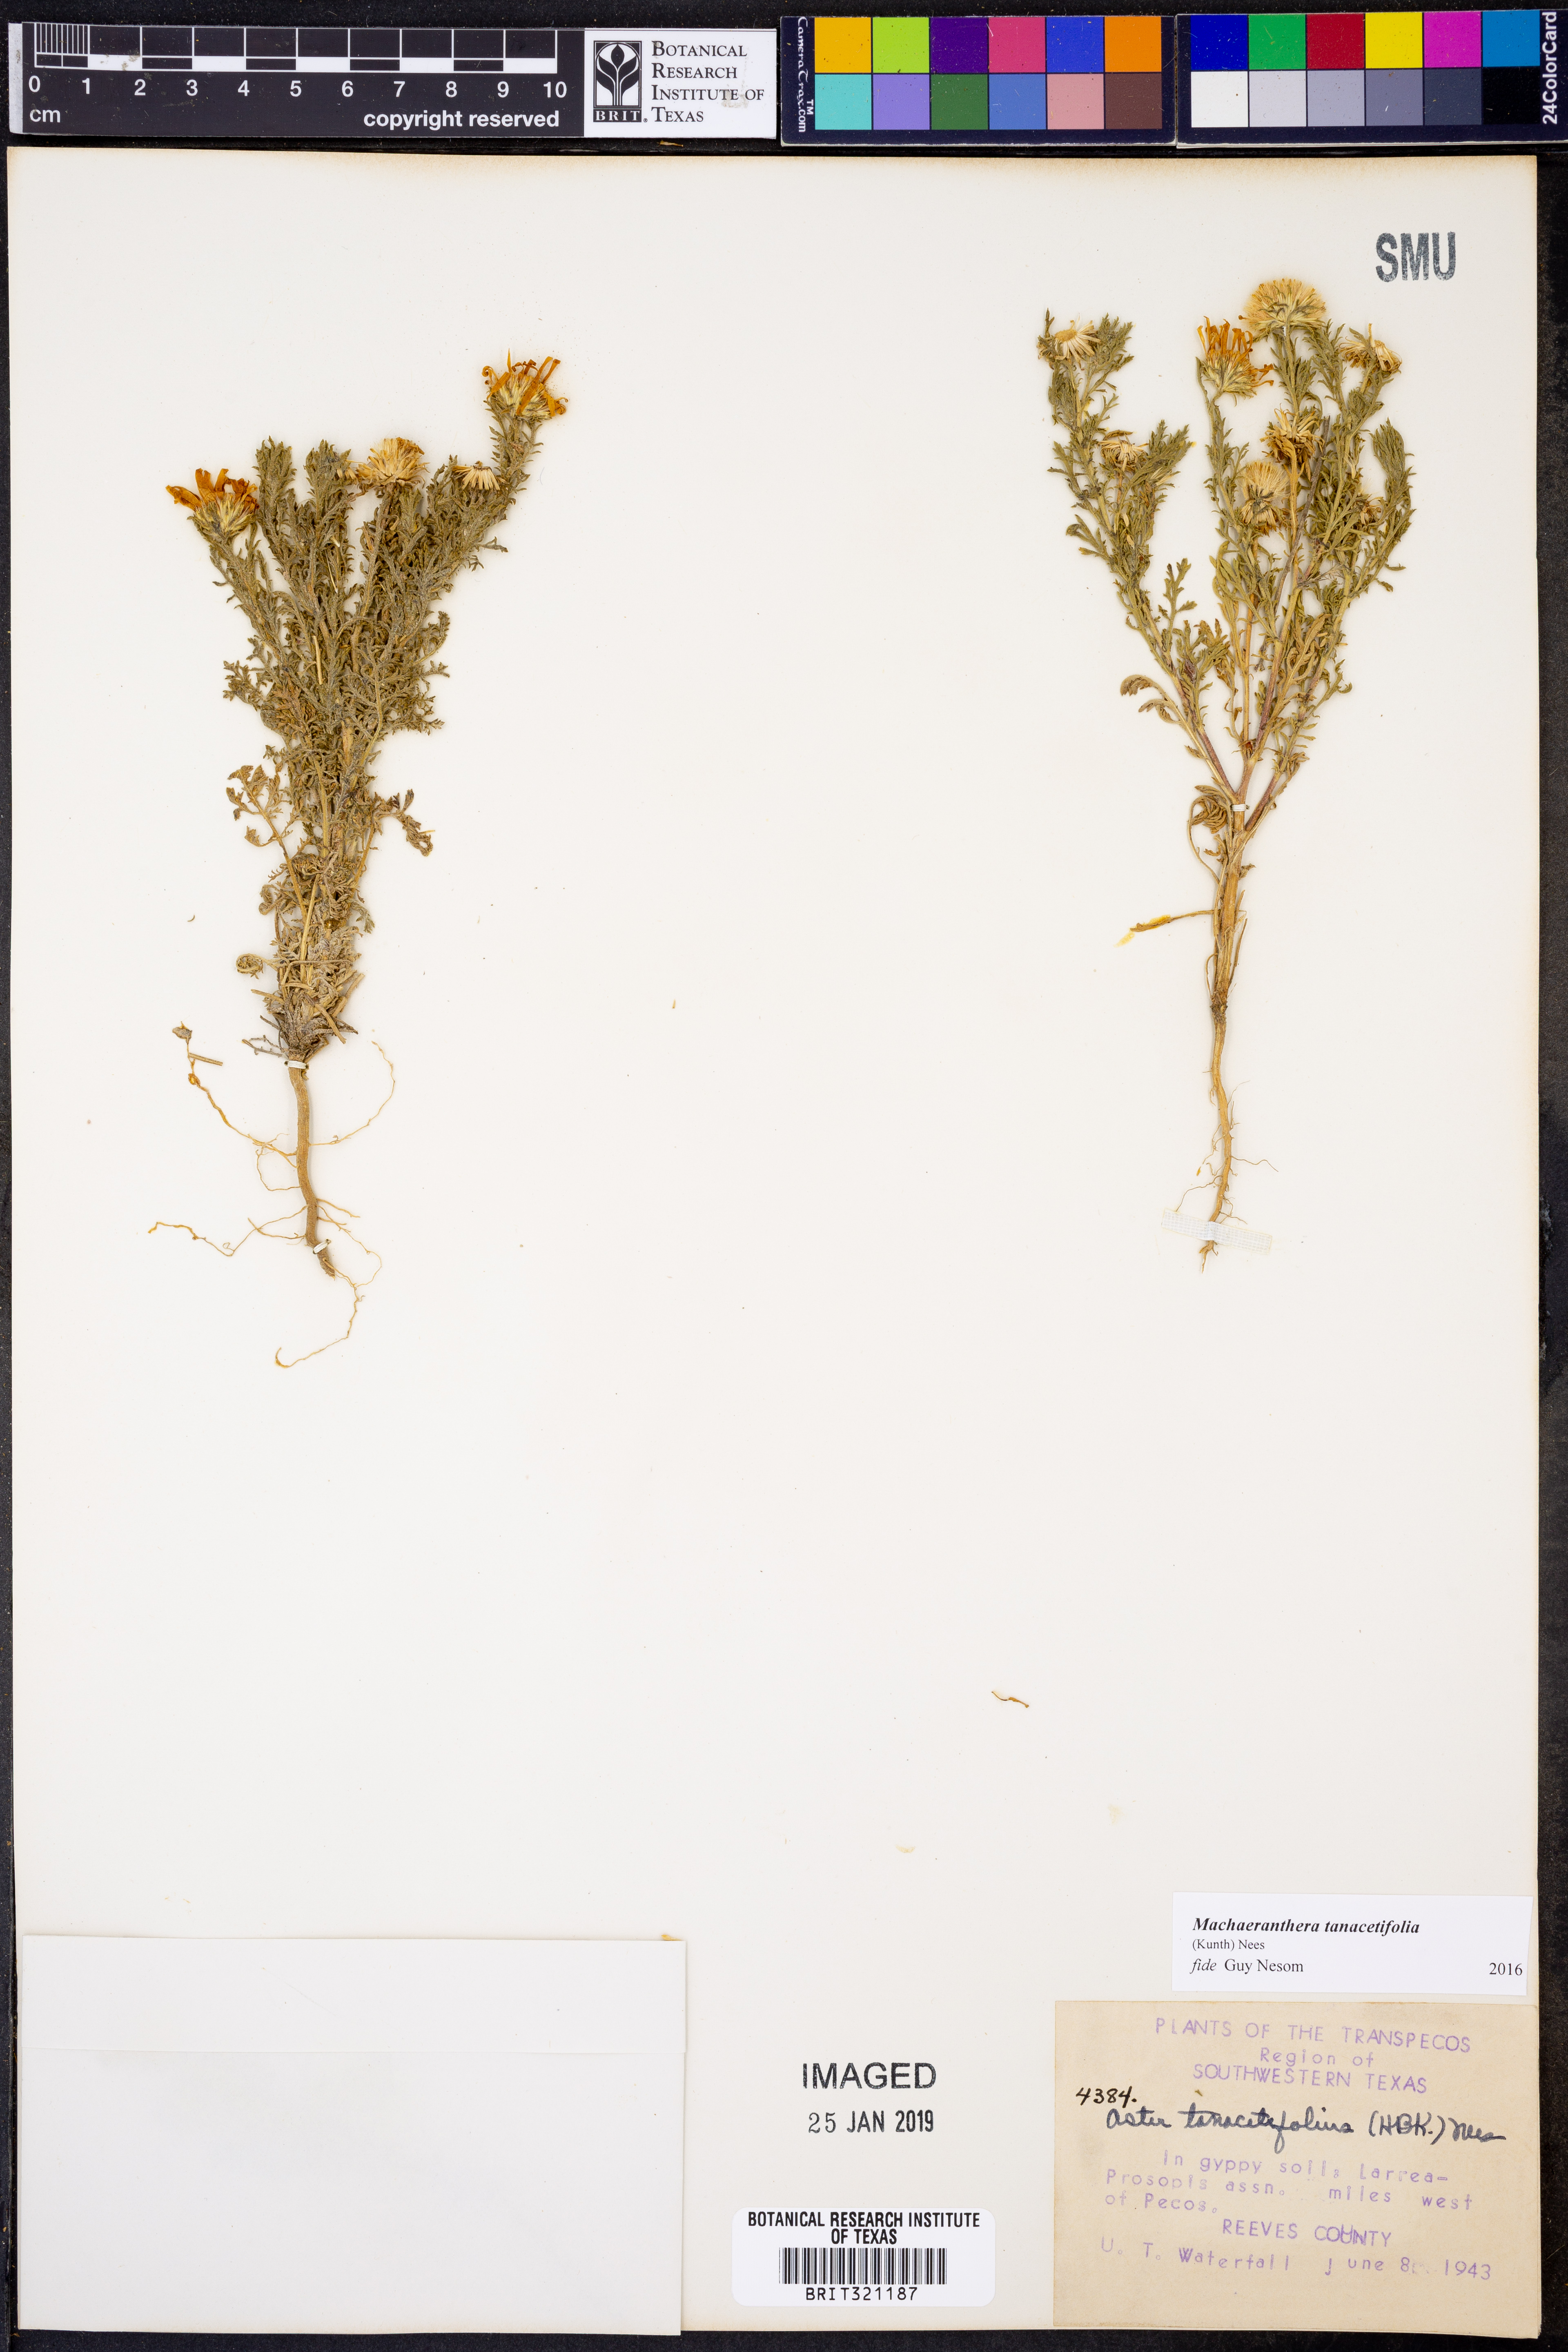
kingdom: Plantae
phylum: Tracheophyta
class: Magnoliopsida
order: Asterales
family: Asteraceae
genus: Machaeranthera
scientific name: Machaeranthera tanacetifolia
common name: Tansy-aster
